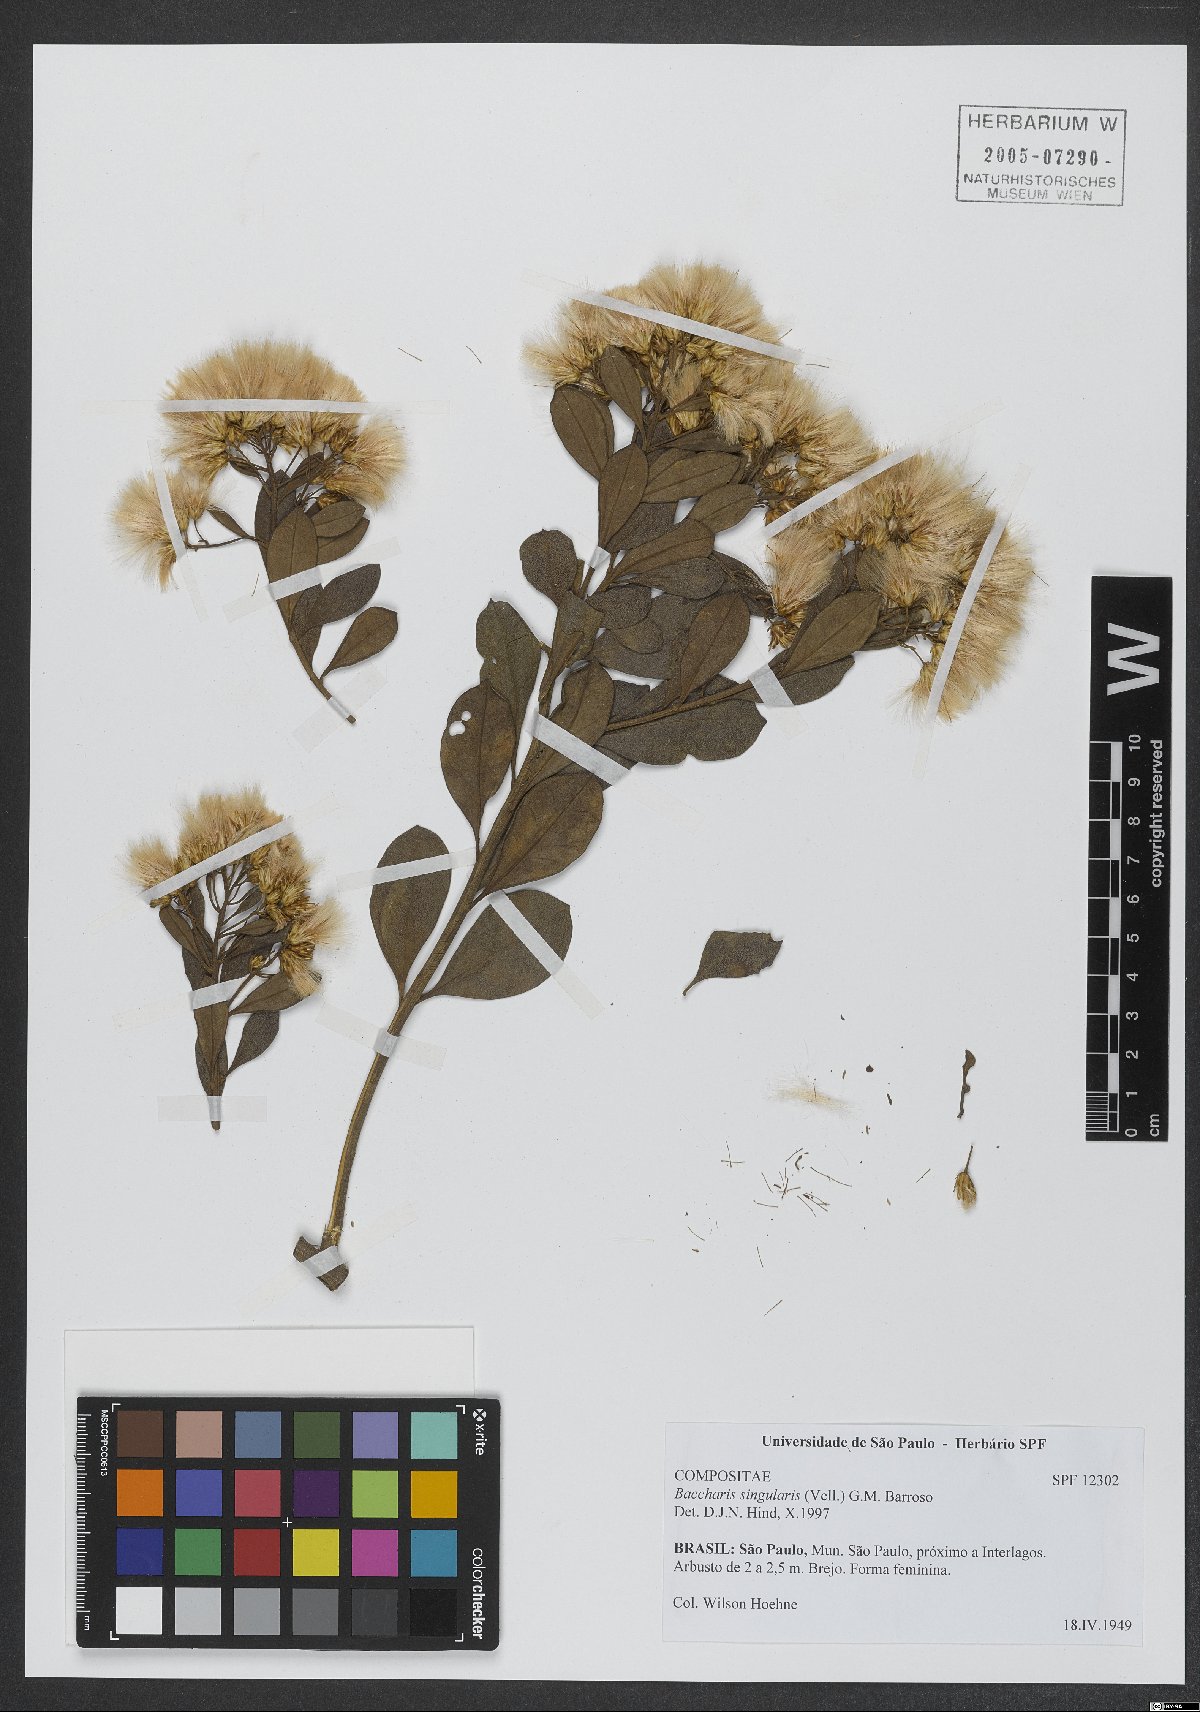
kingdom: Plantae
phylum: Tracheophyta
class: Magnoliopsida
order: Asterales
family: Asteraceae
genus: Baccharis
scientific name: Baccharis singularis
